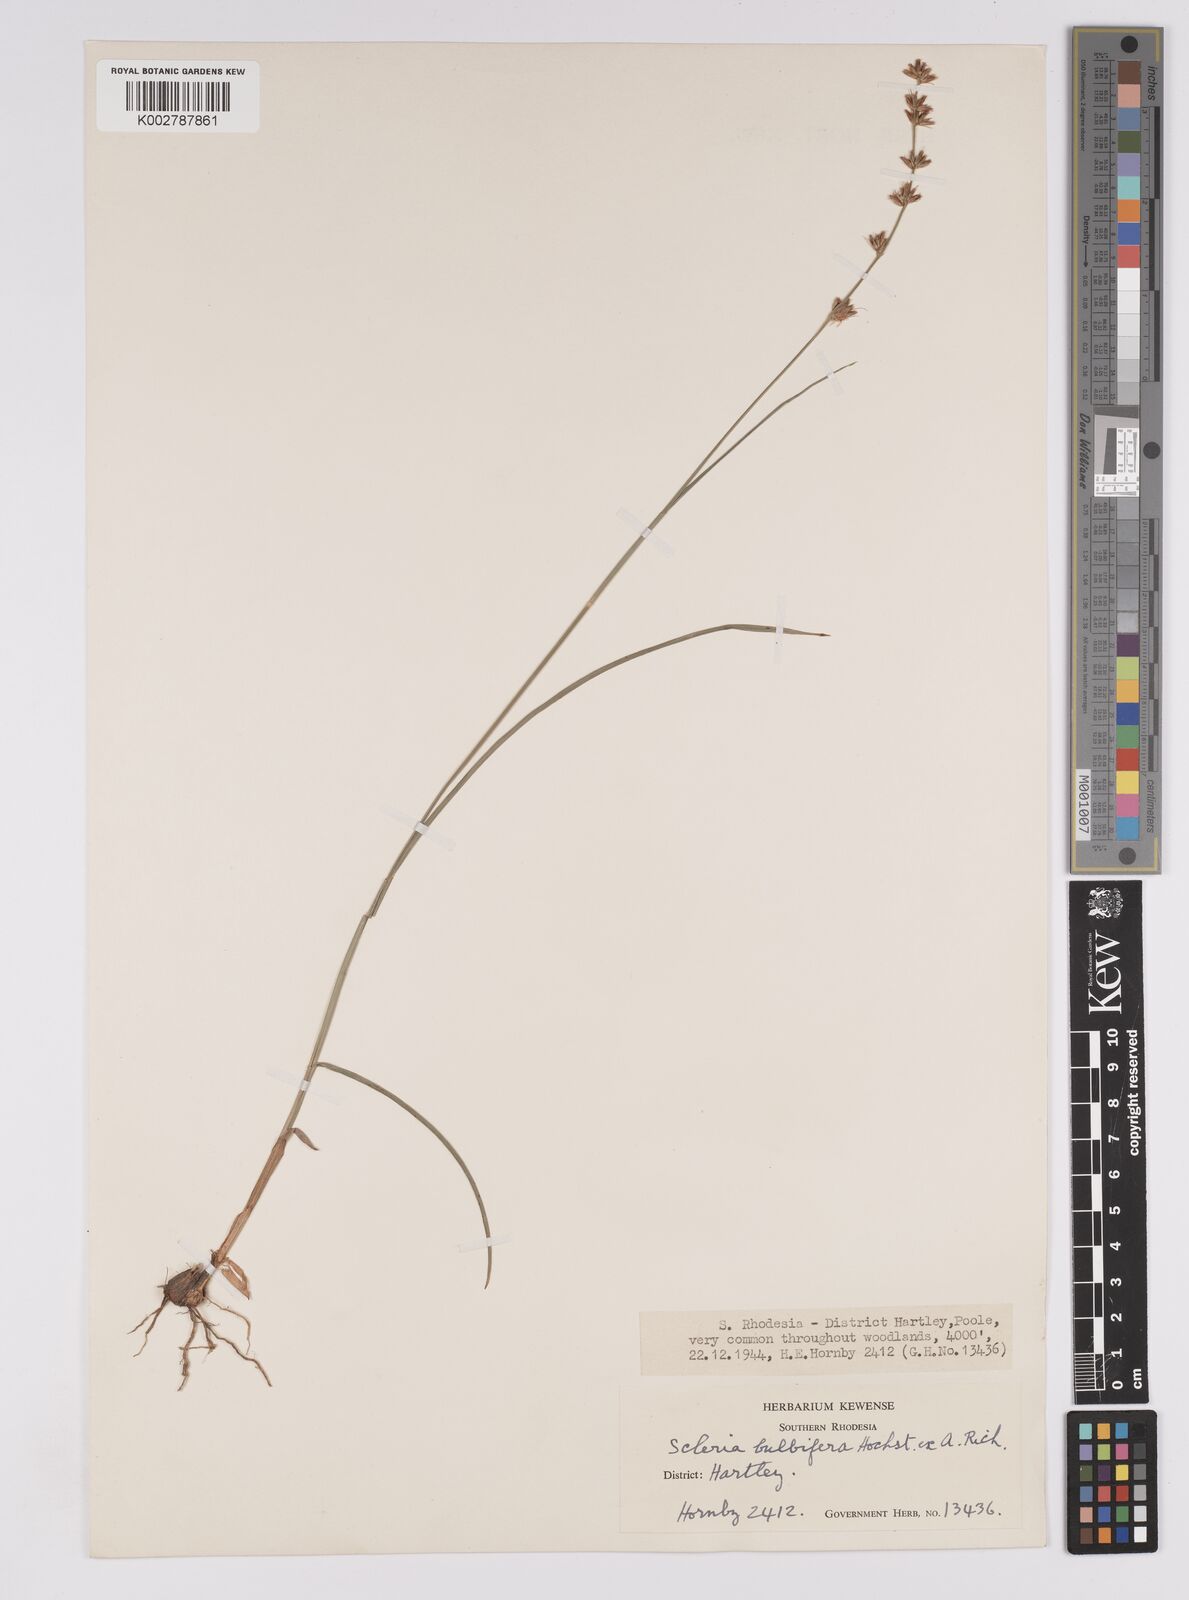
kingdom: Plantae
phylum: Tracheophyta
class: Liliopsida
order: Poales
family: Cyperaceae
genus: Scleria
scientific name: Scleria bulbifera
